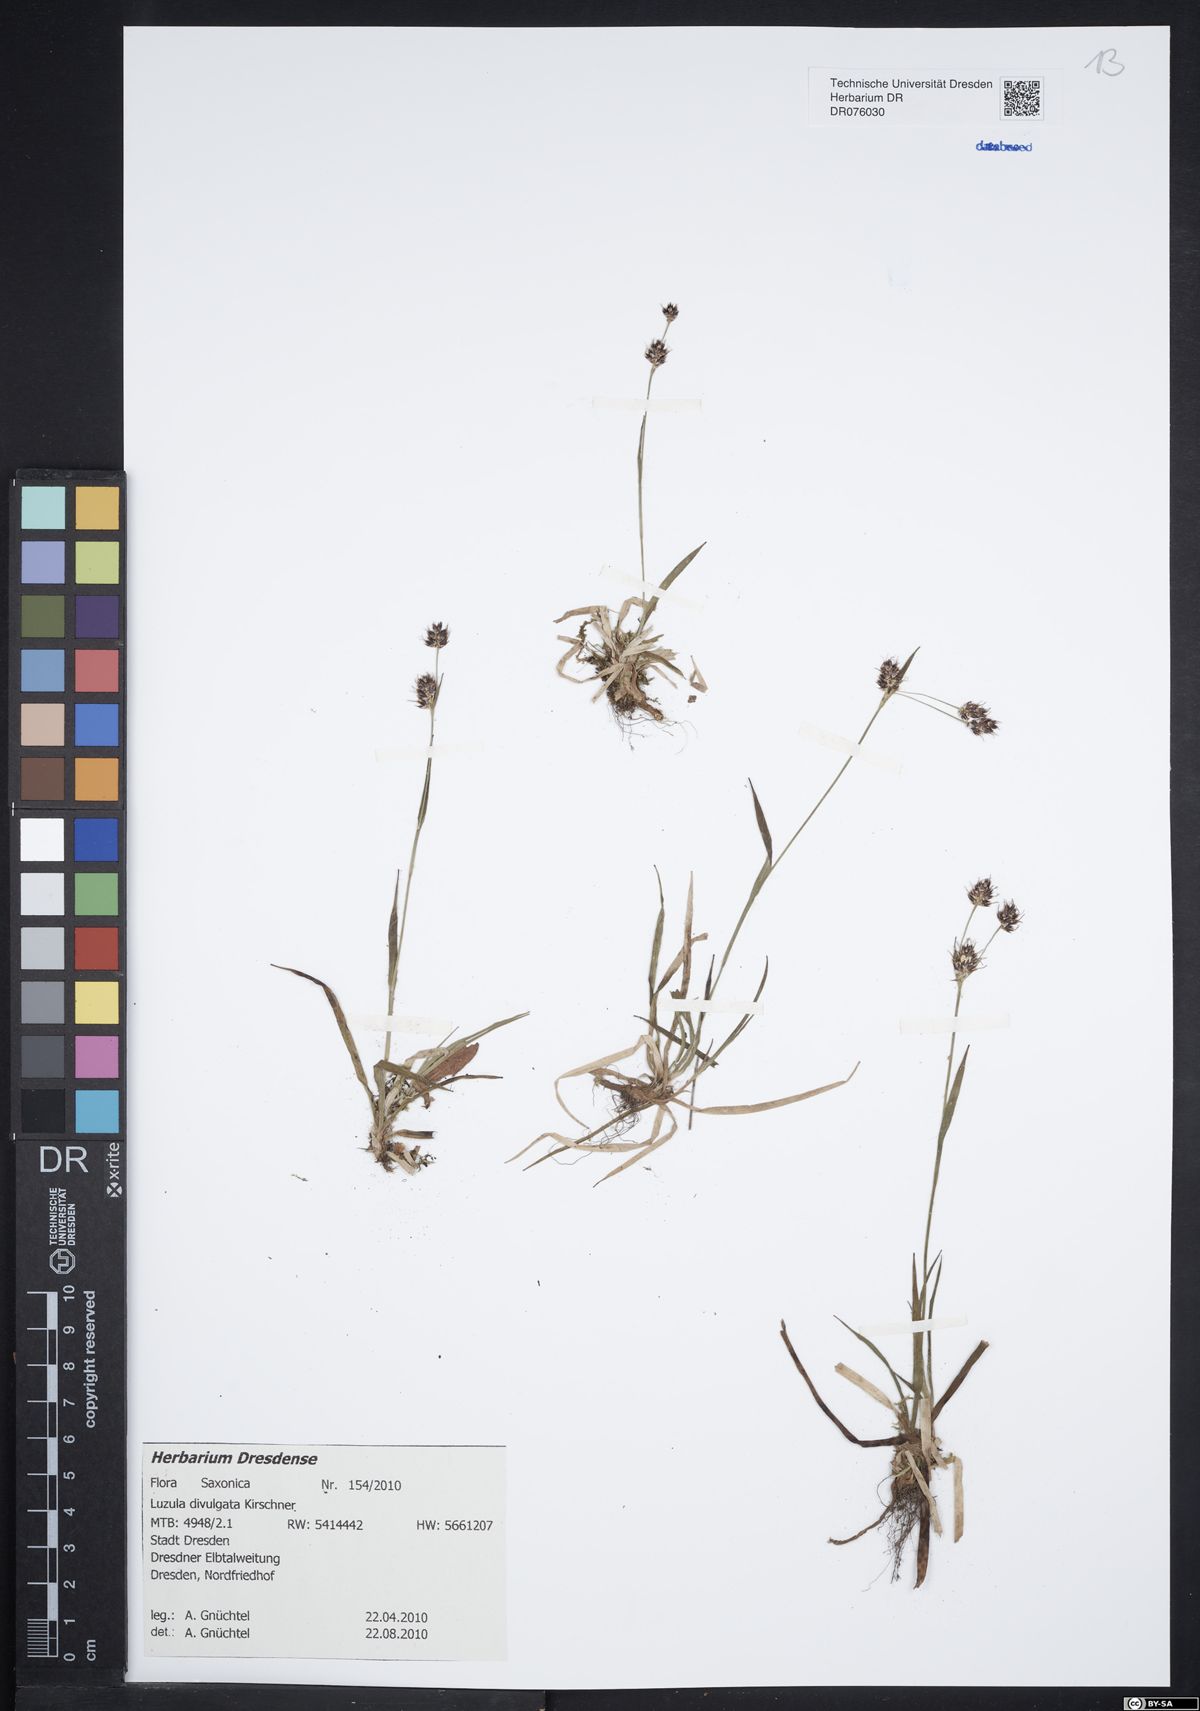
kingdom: Plantae
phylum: Tracheophyta
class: Liliopsida
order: Poales
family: Juncaceae
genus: Luzula
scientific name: Luzula divulgata
